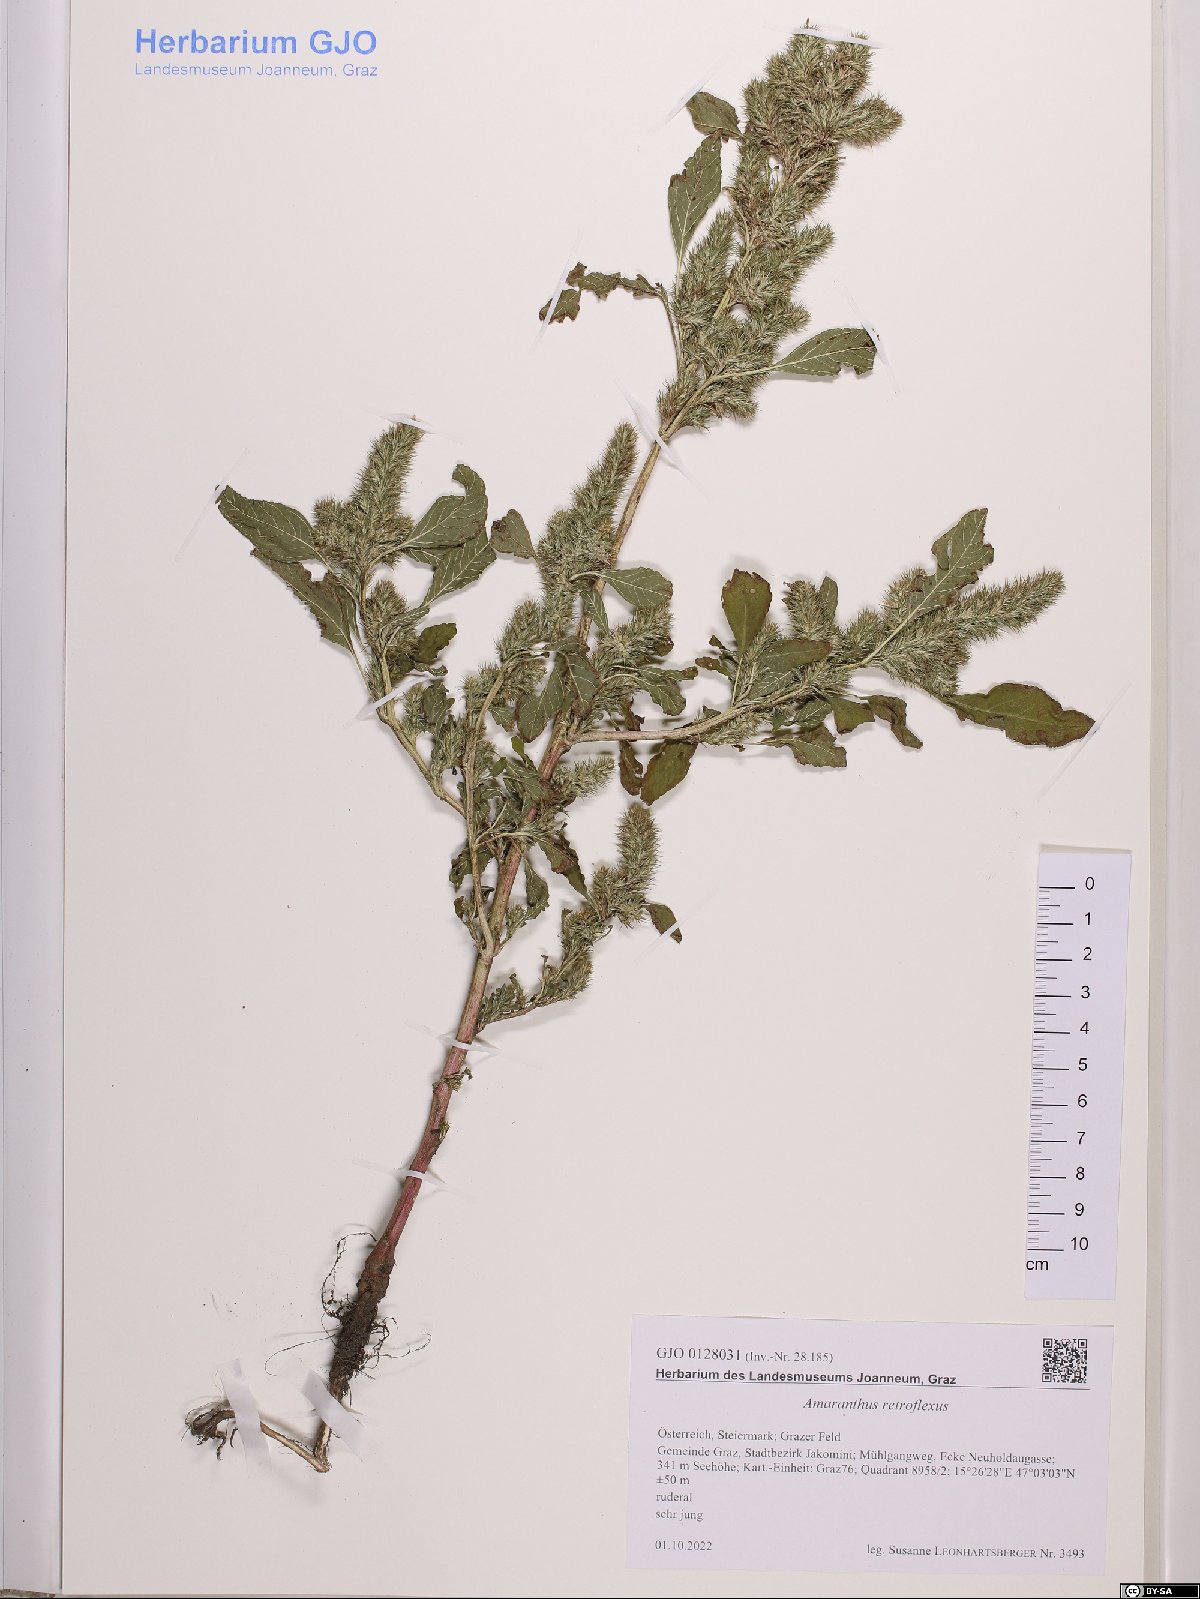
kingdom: Plantae
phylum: Tracheophyta
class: Magnoliopsida
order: Caryophyllales
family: Amaranthaceae
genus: Amaranthus
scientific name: Amaranthus retroflexus
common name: Redroot amaranth
